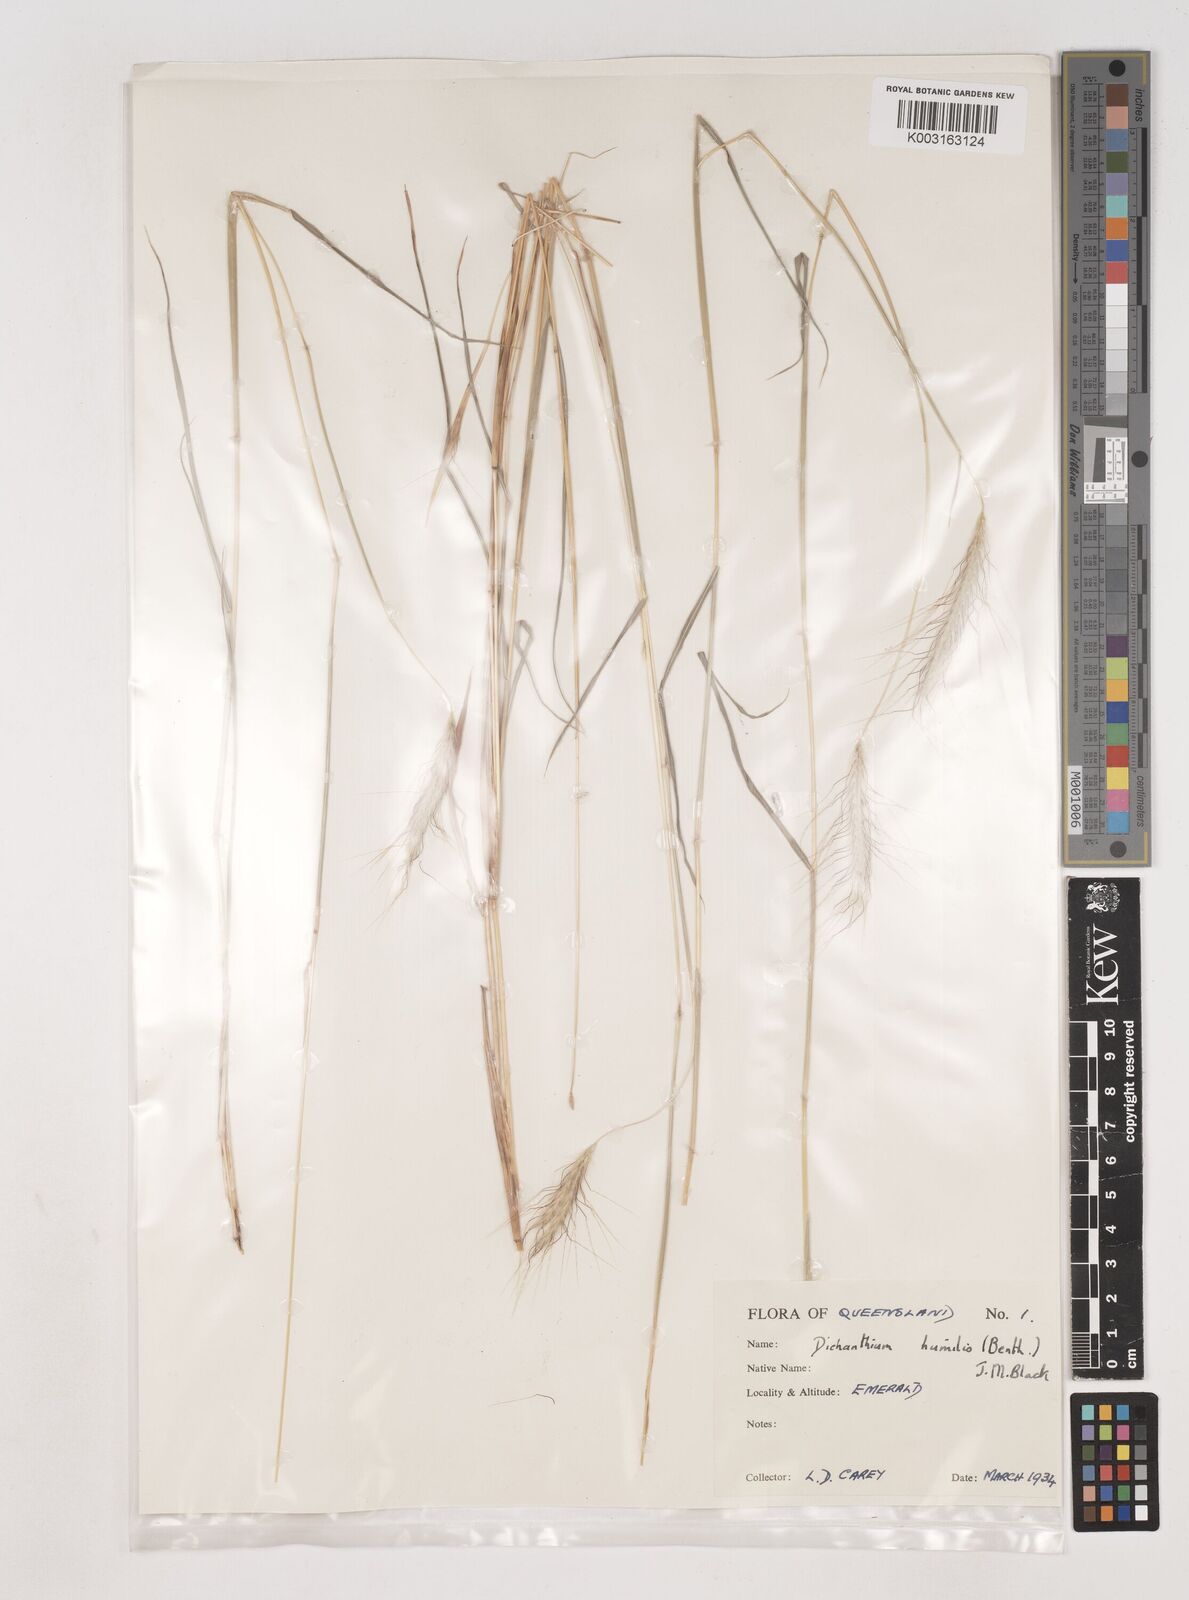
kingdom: Plantae
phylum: Tracheophyta
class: Liliopsida
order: Poales
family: Poaceae
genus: Dichanthium
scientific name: Dichanthium sericeum
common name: Silky bluestem
